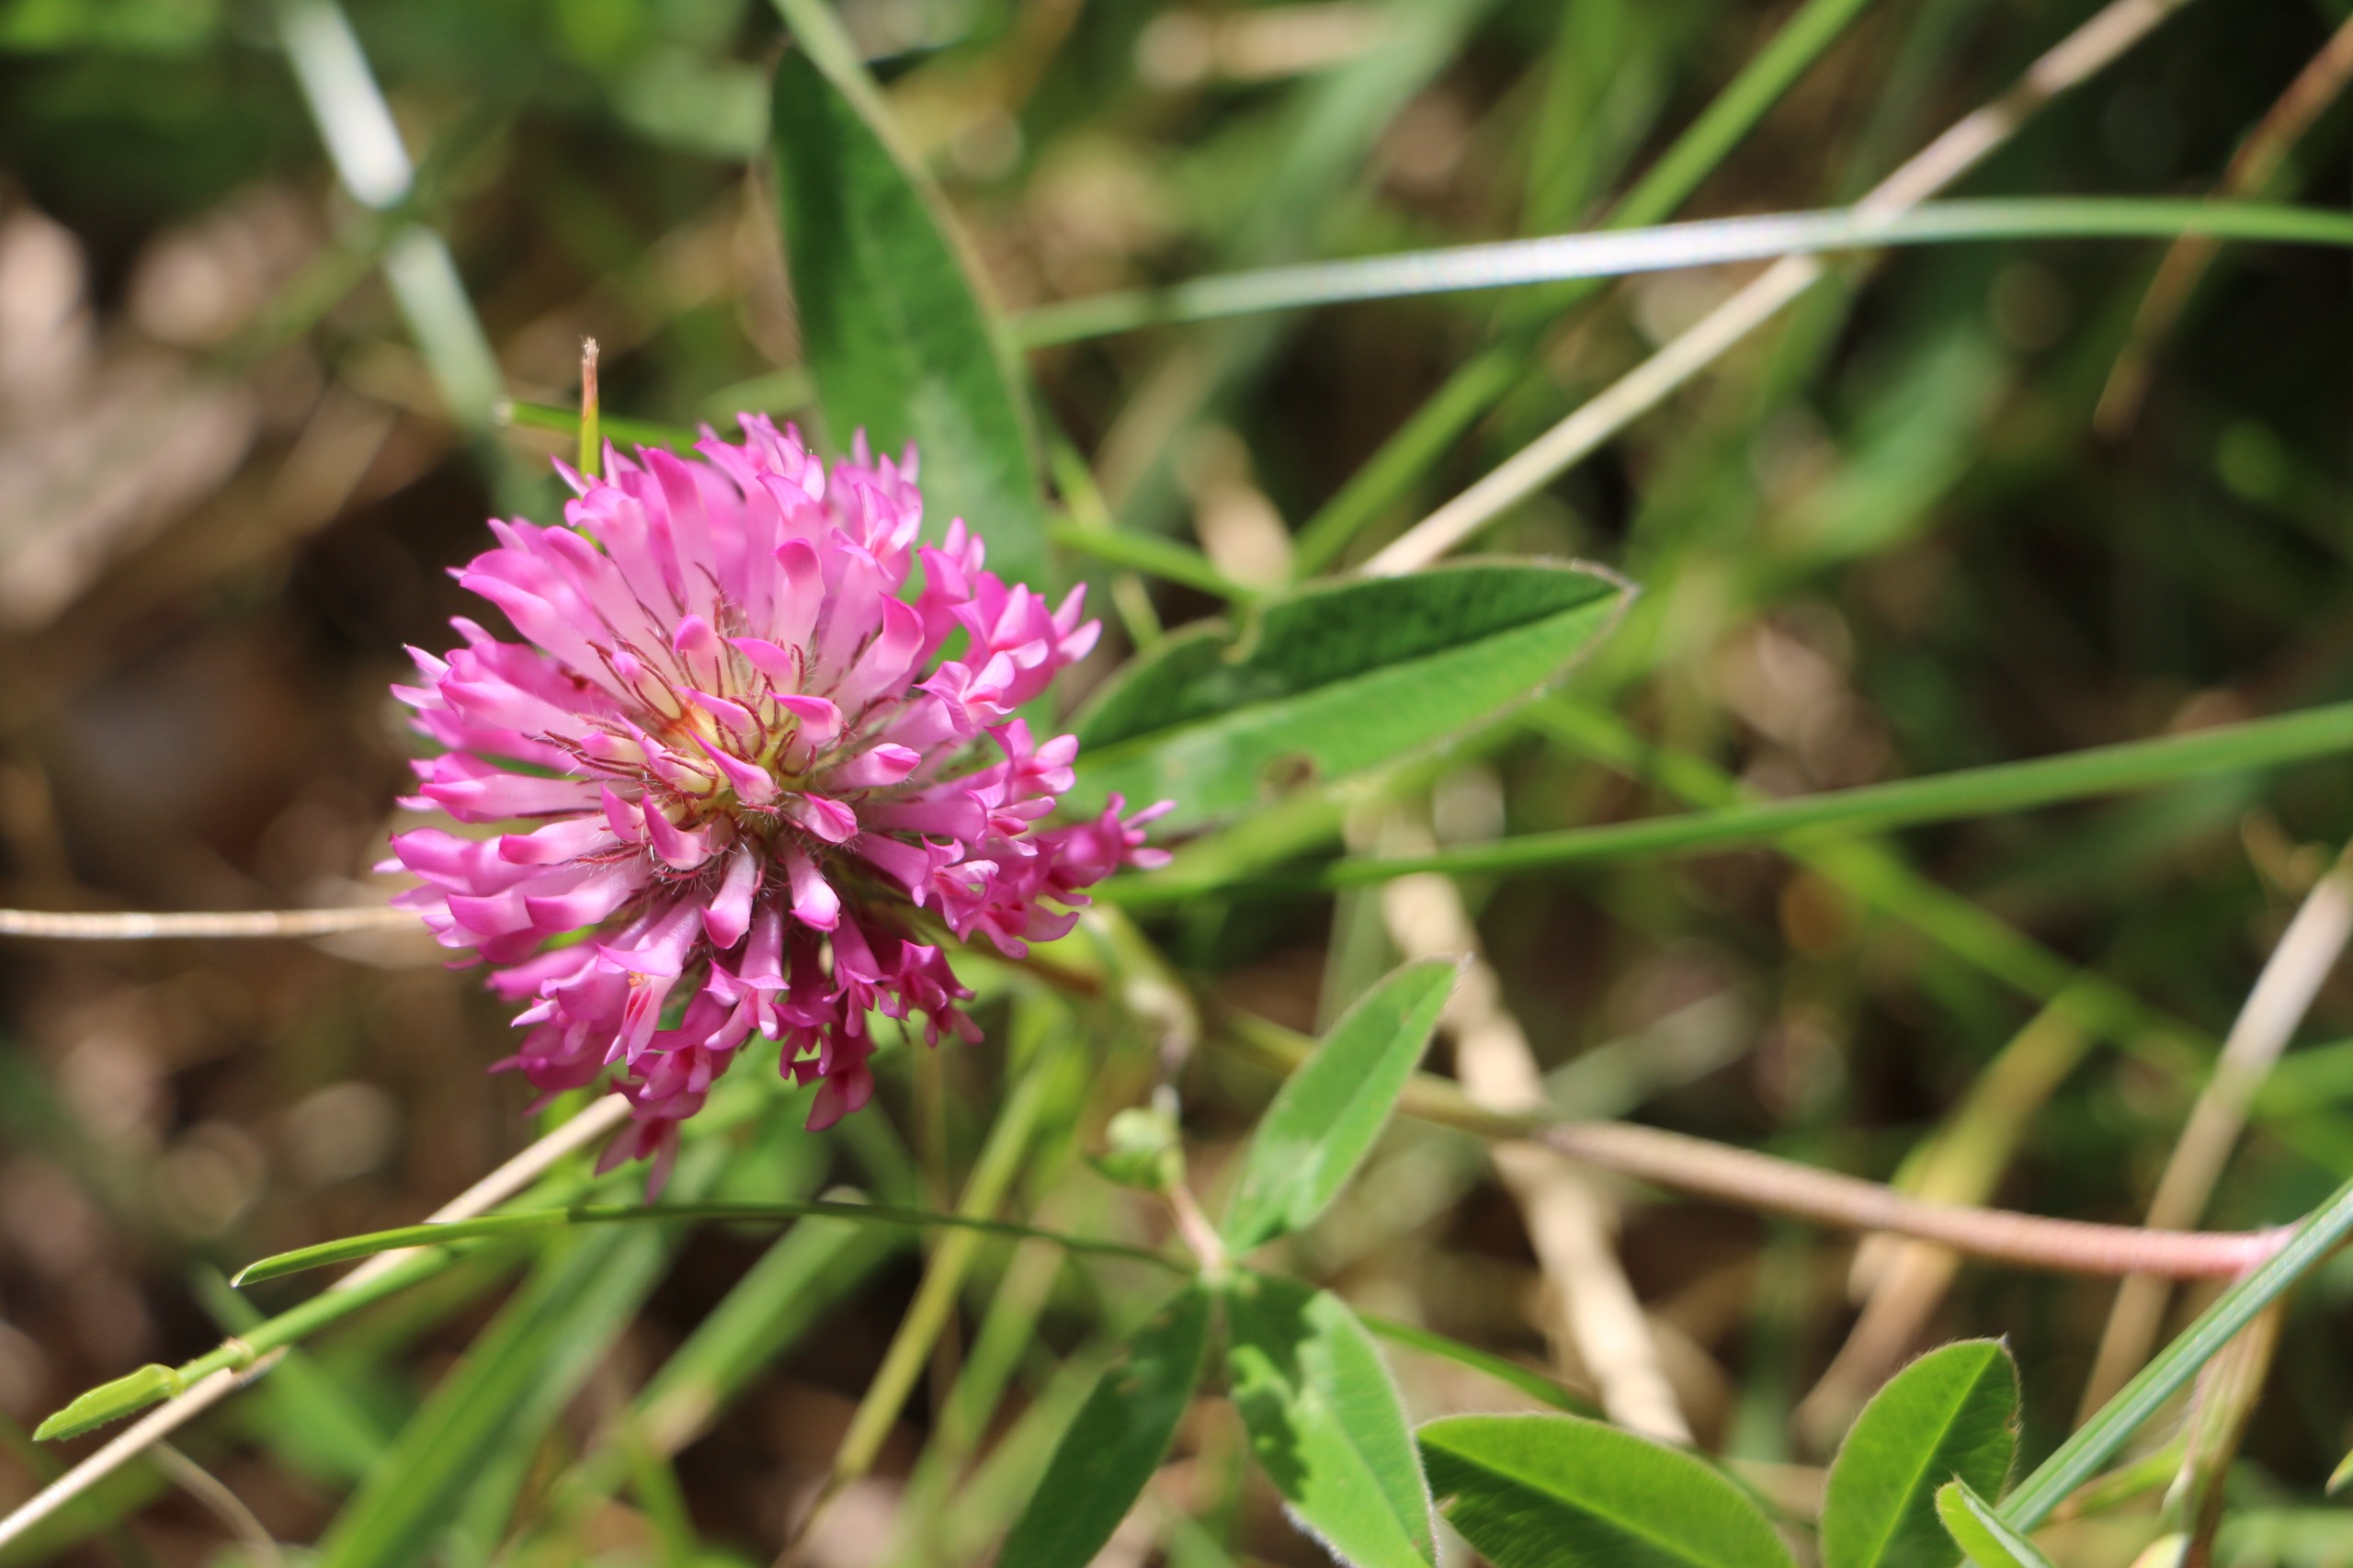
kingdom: Plantae
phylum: Tracheophyta
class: Magnoliopsida
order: Fabales
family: Fabaceae
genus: Trifolium
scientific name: Trifolium medium
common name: Bugtet kløver
